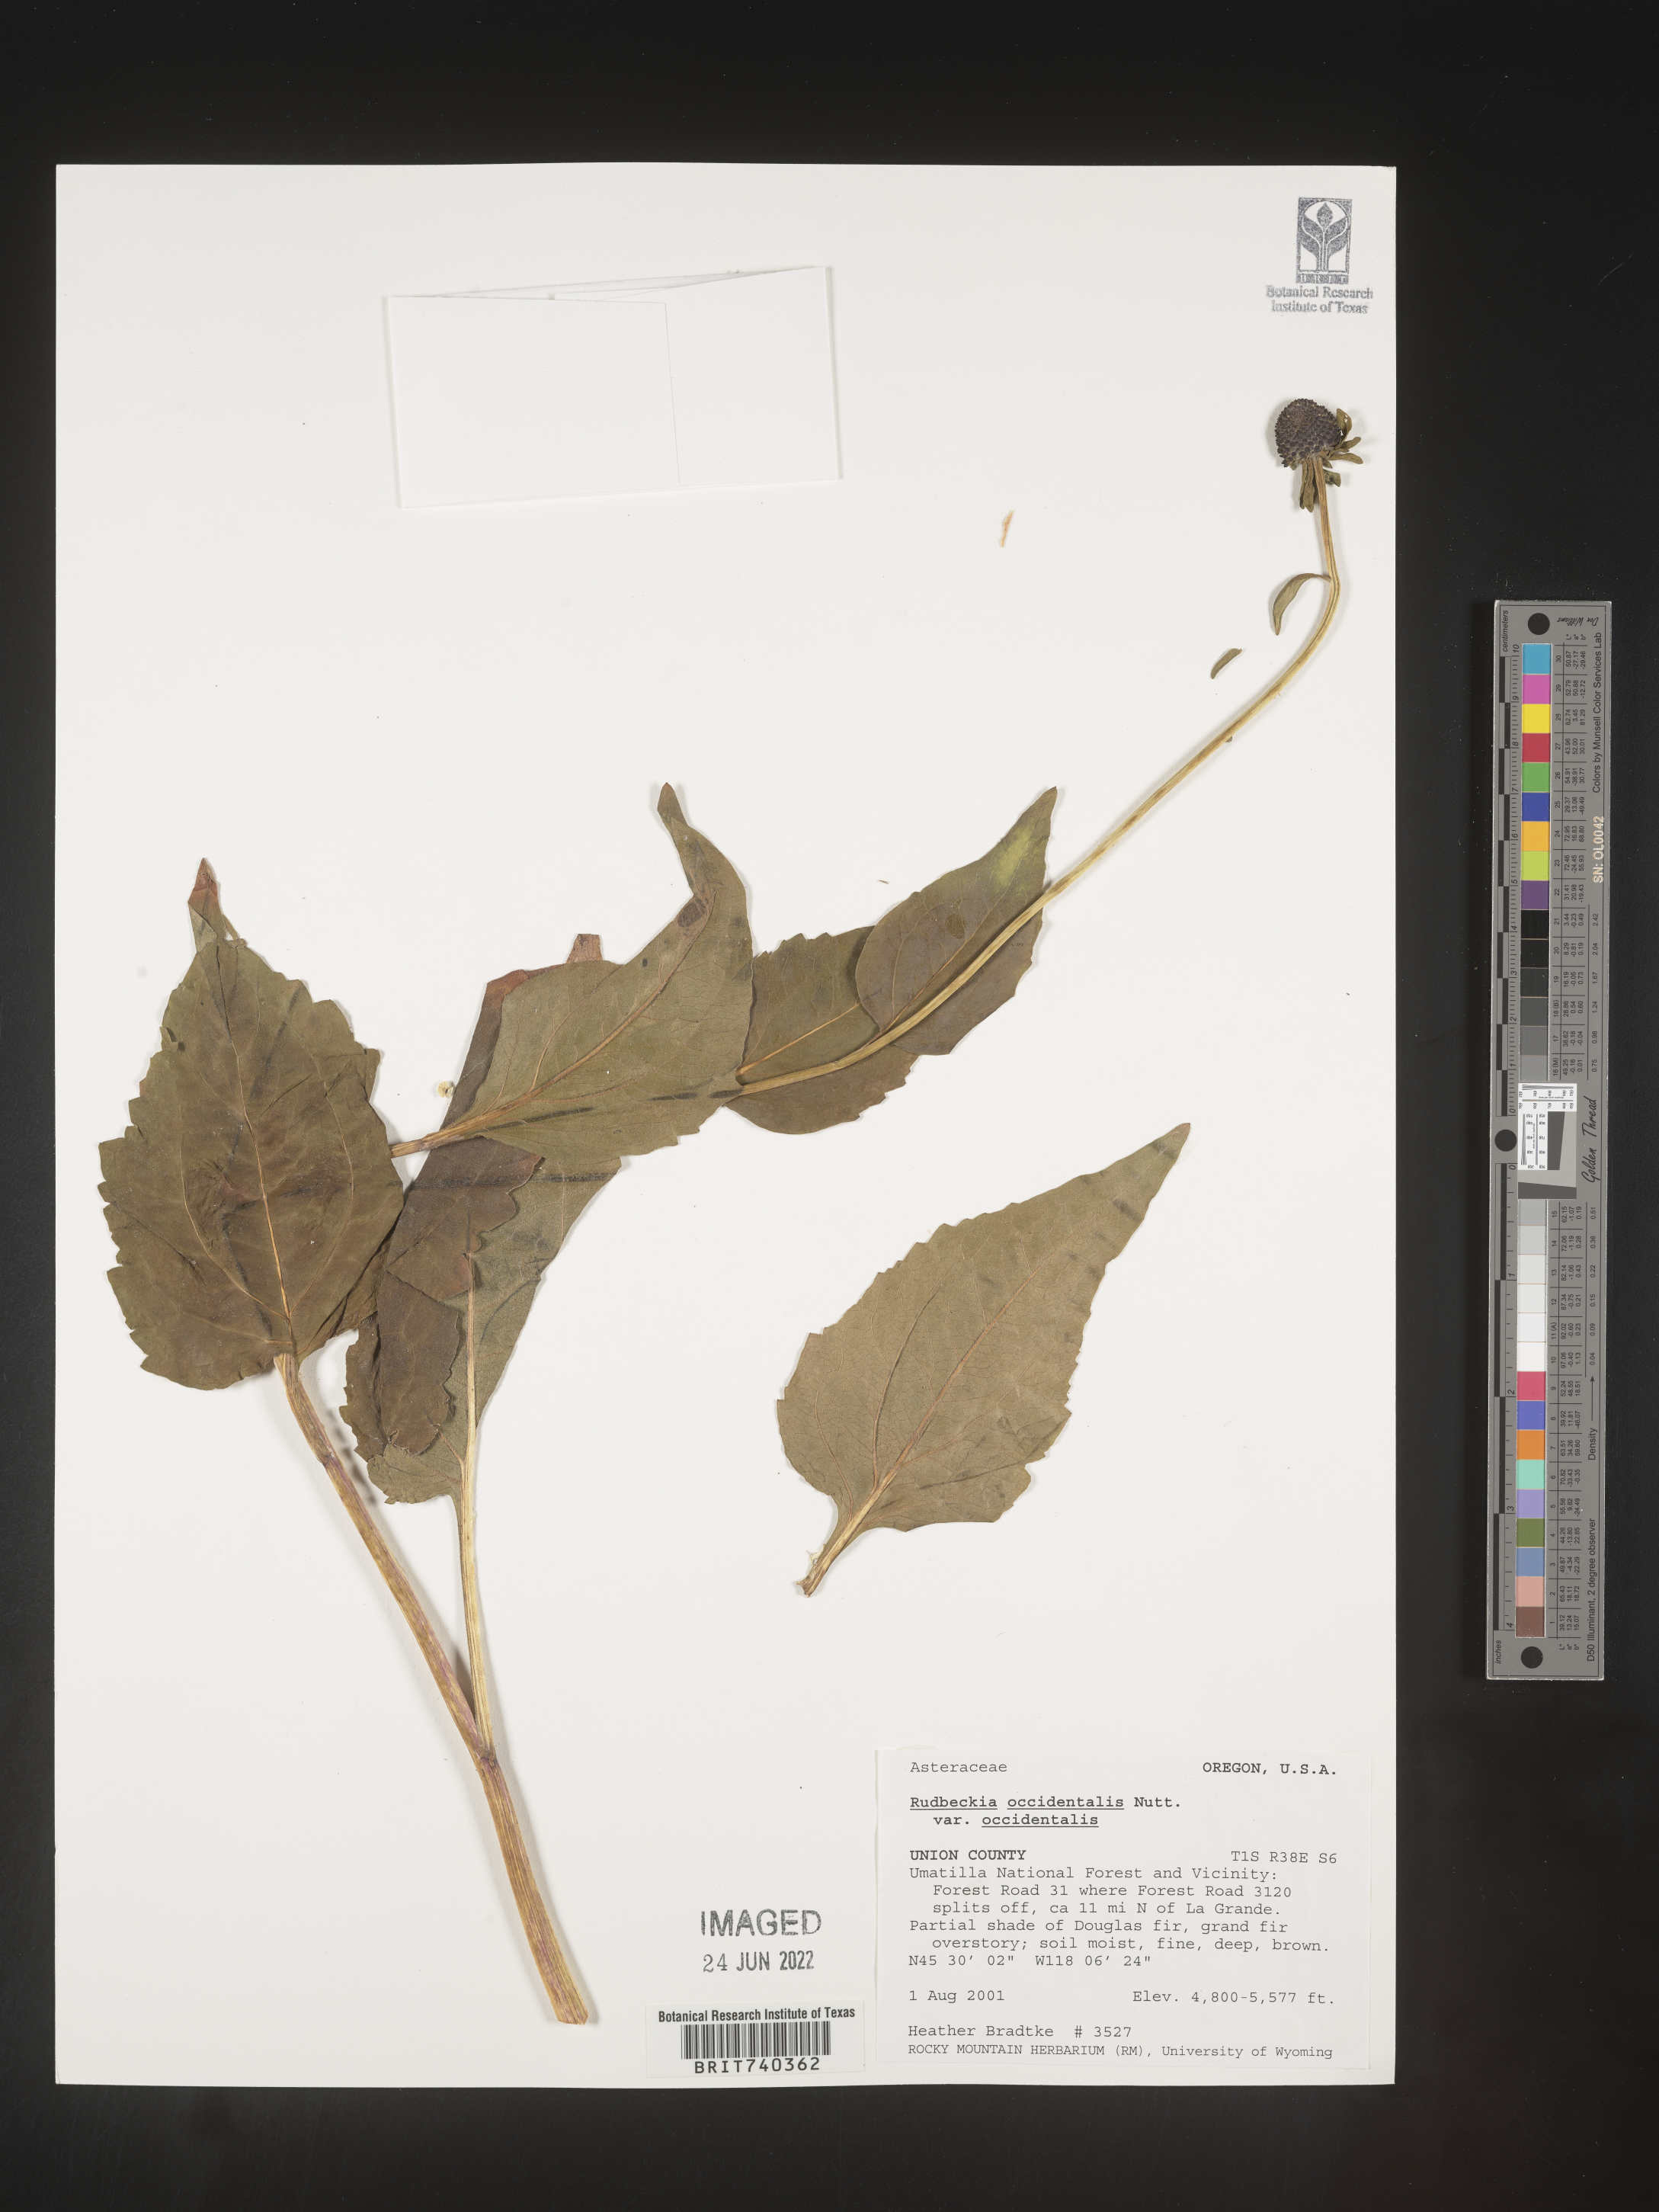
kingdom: Plantae
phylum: Tracheophyta
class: Magnoliopsida
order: Asterales
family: Asteraceae
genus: Rudbeckia
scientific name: Rudbeckia
